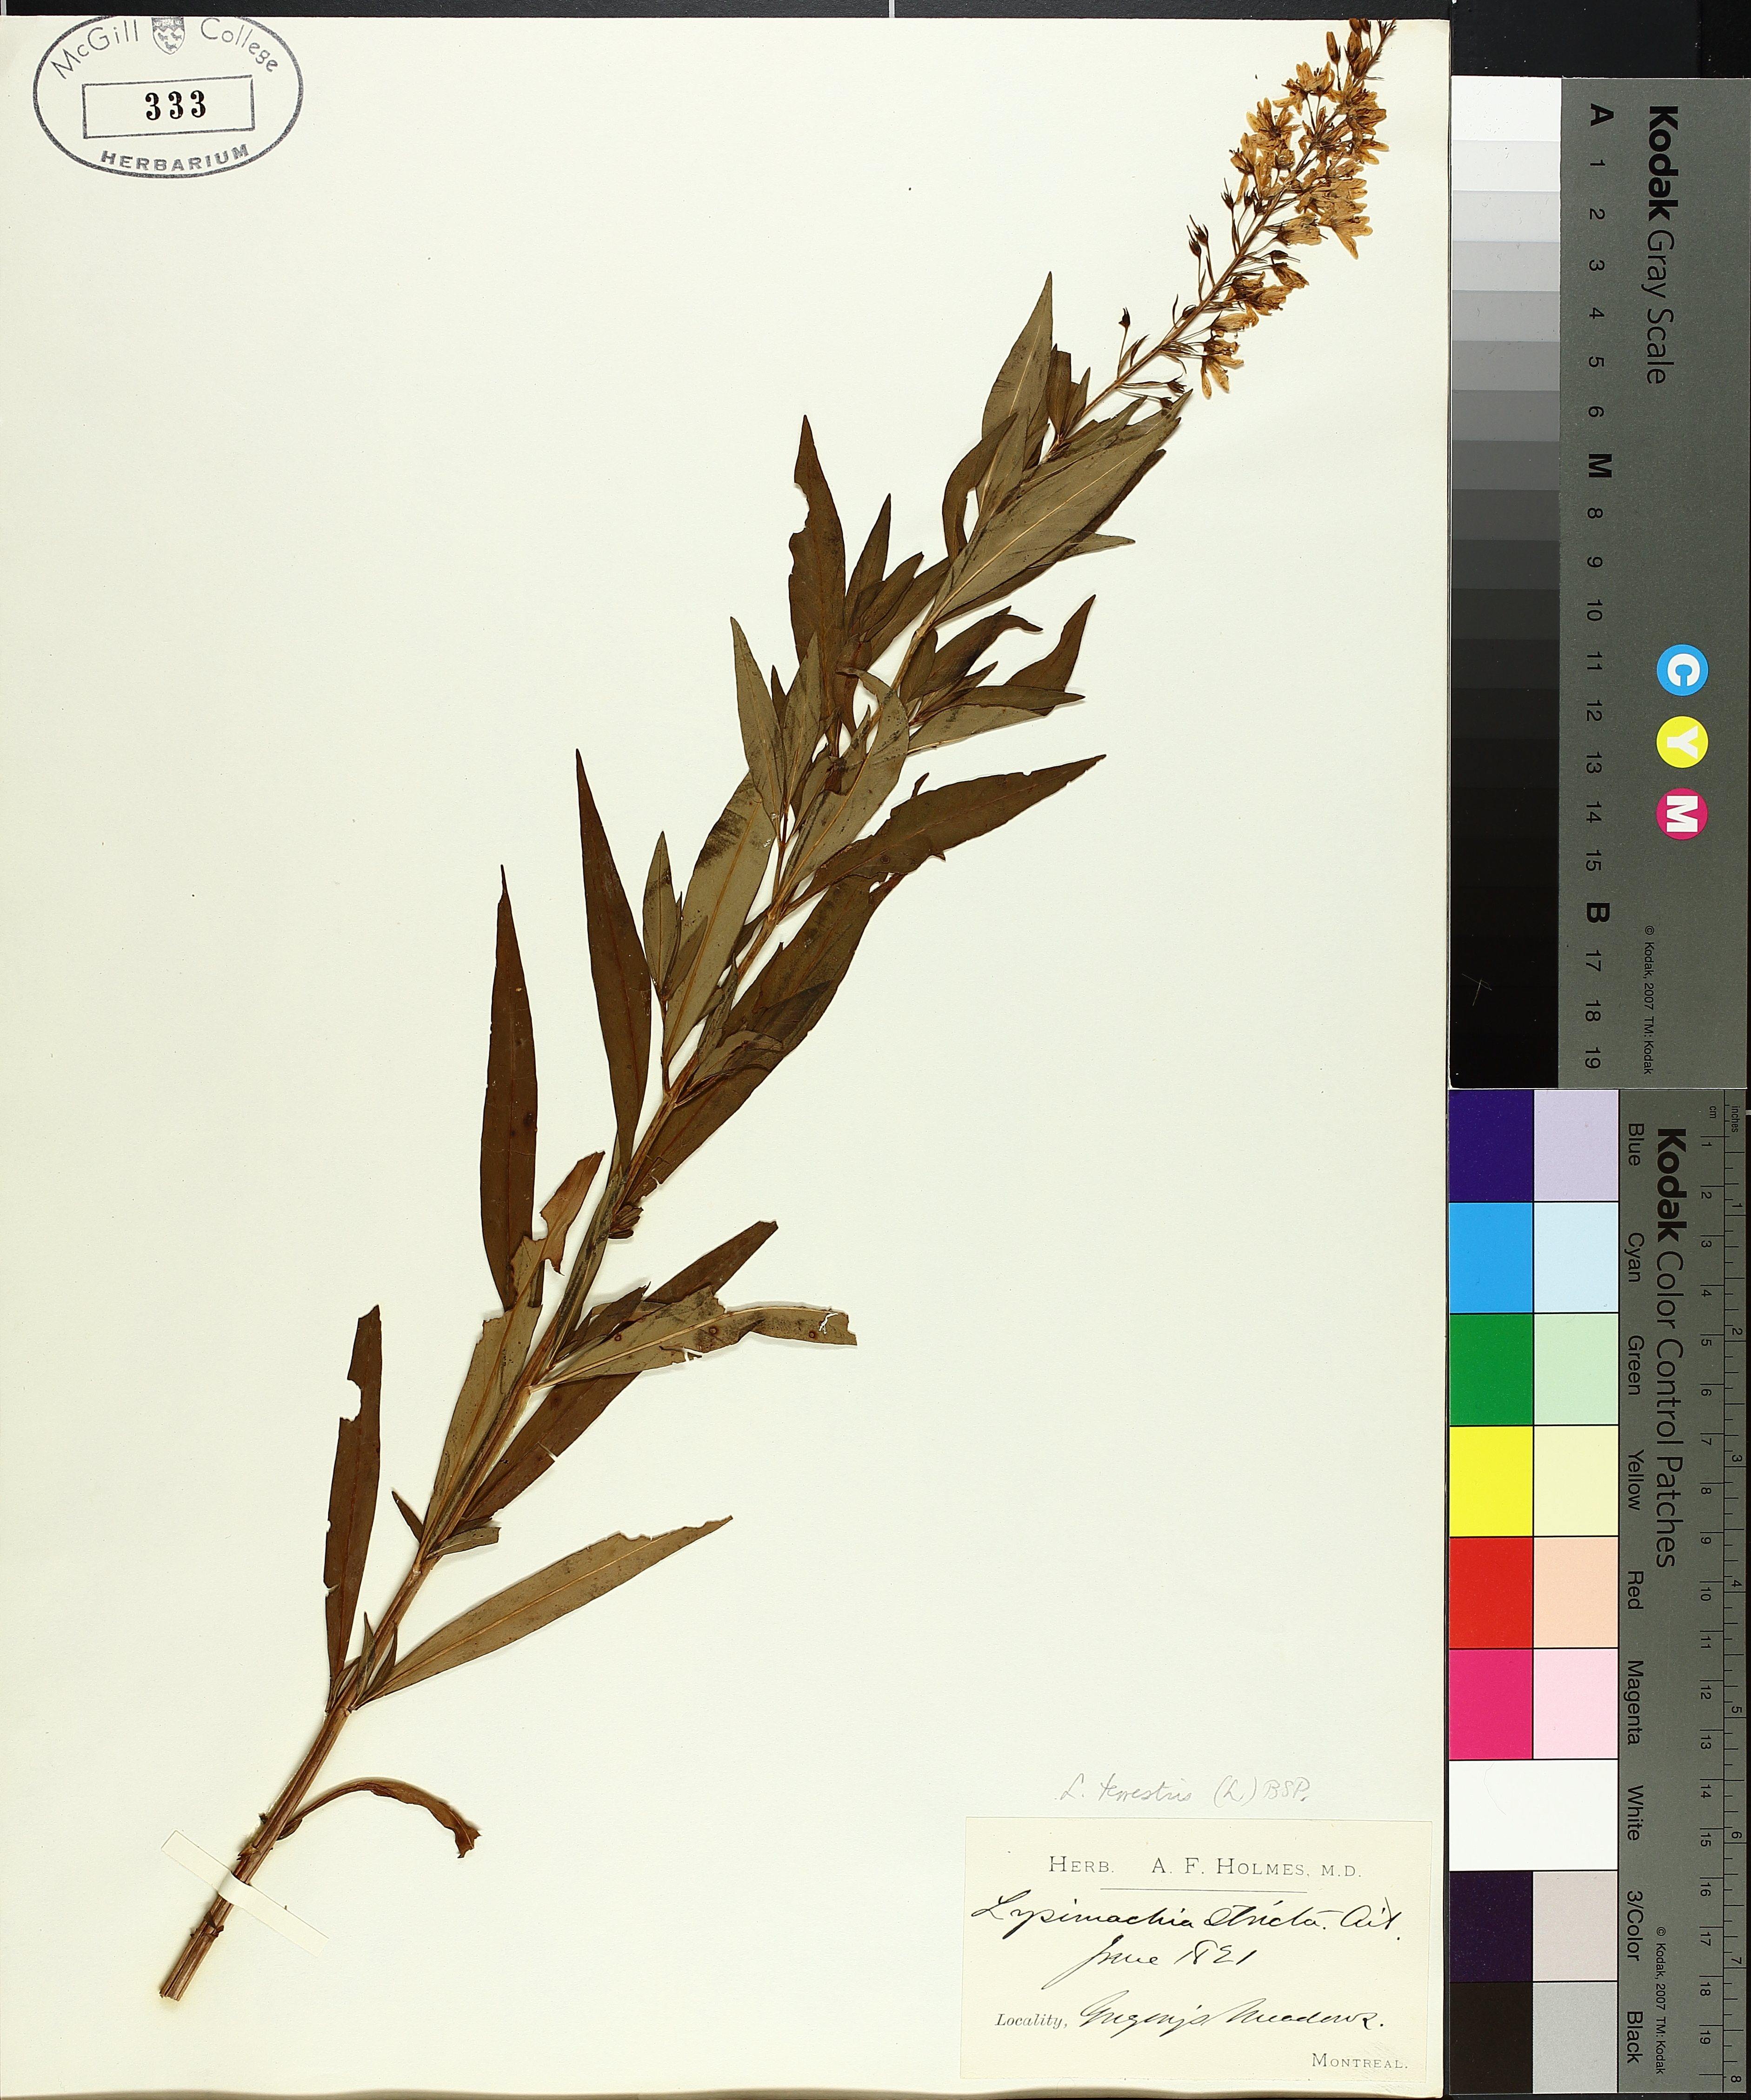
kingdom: Plantae
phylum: Tracheophyta
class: Magnoliopsida
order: Ericales
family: Primulaceae
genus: Lysimachia
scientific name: Lysimachia terrestris
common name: Lake loosestrife
